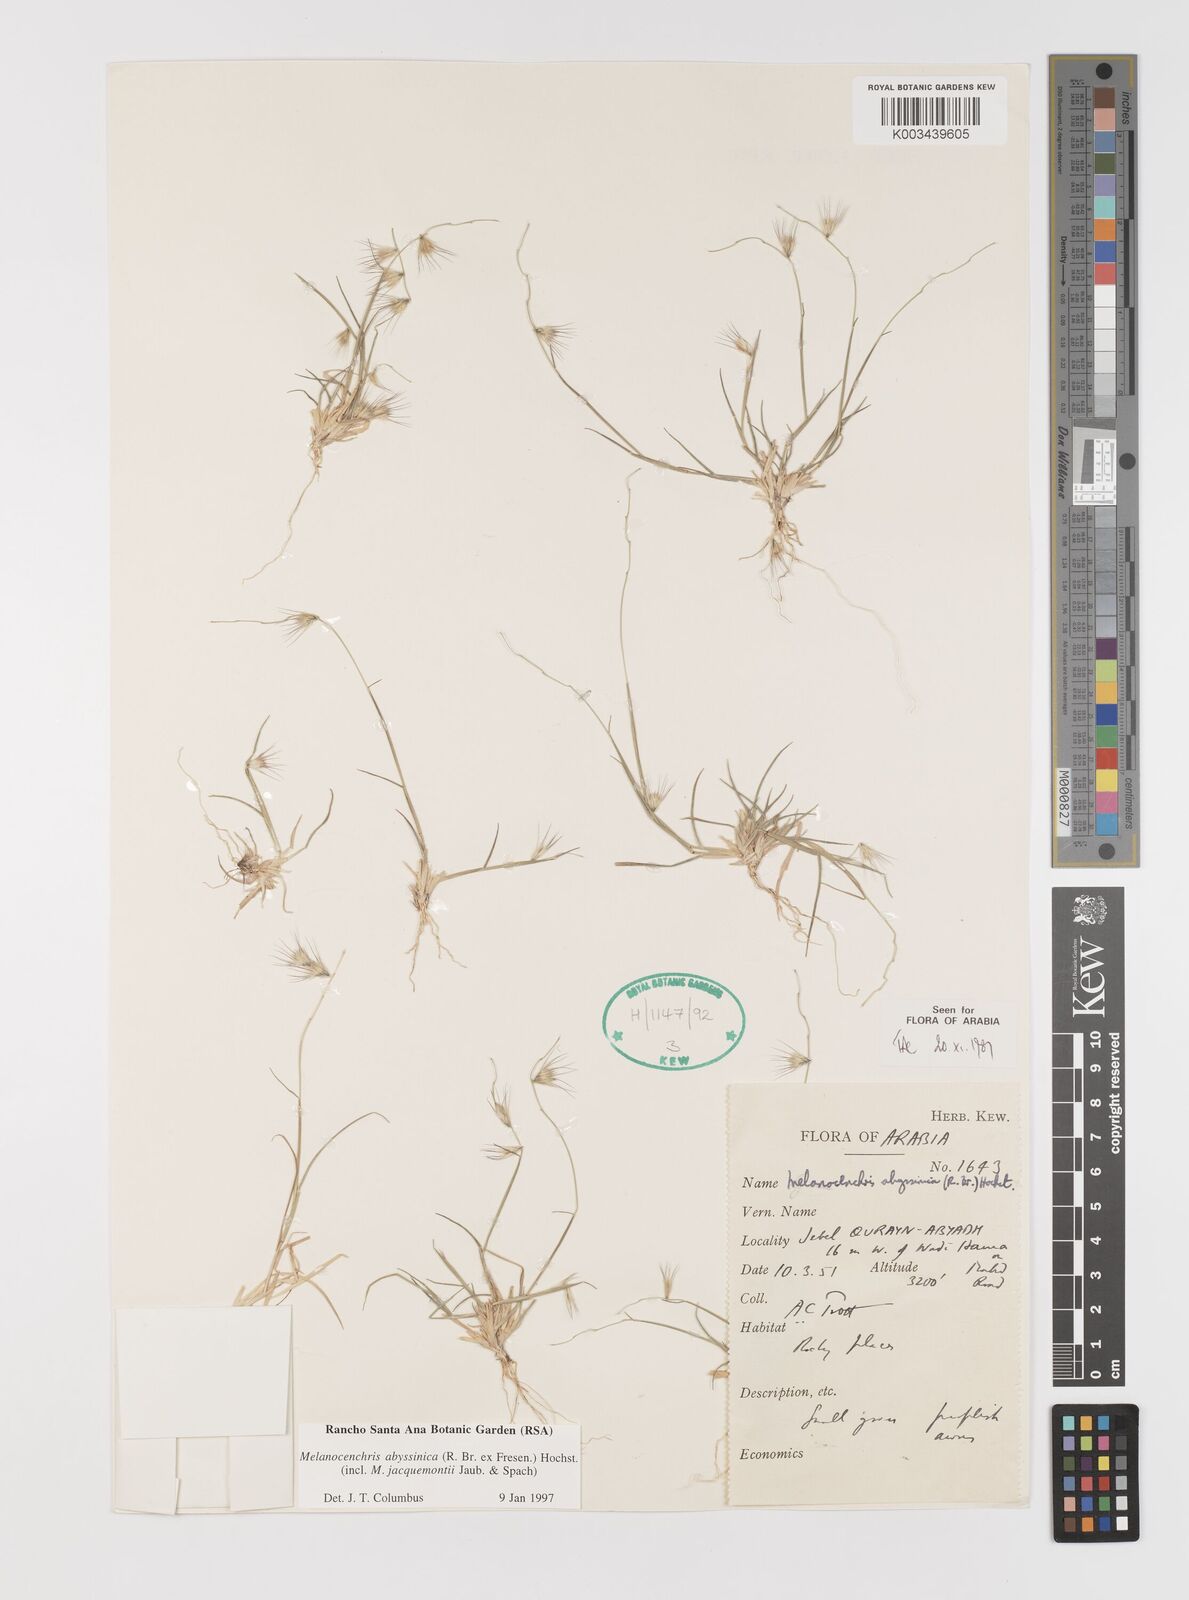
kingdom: Plantae
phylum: Tracheophyta
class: Liliopsida
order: Poales
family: Poaceae
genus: Melanocenchris
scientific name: Melanocenchris abyssinica
